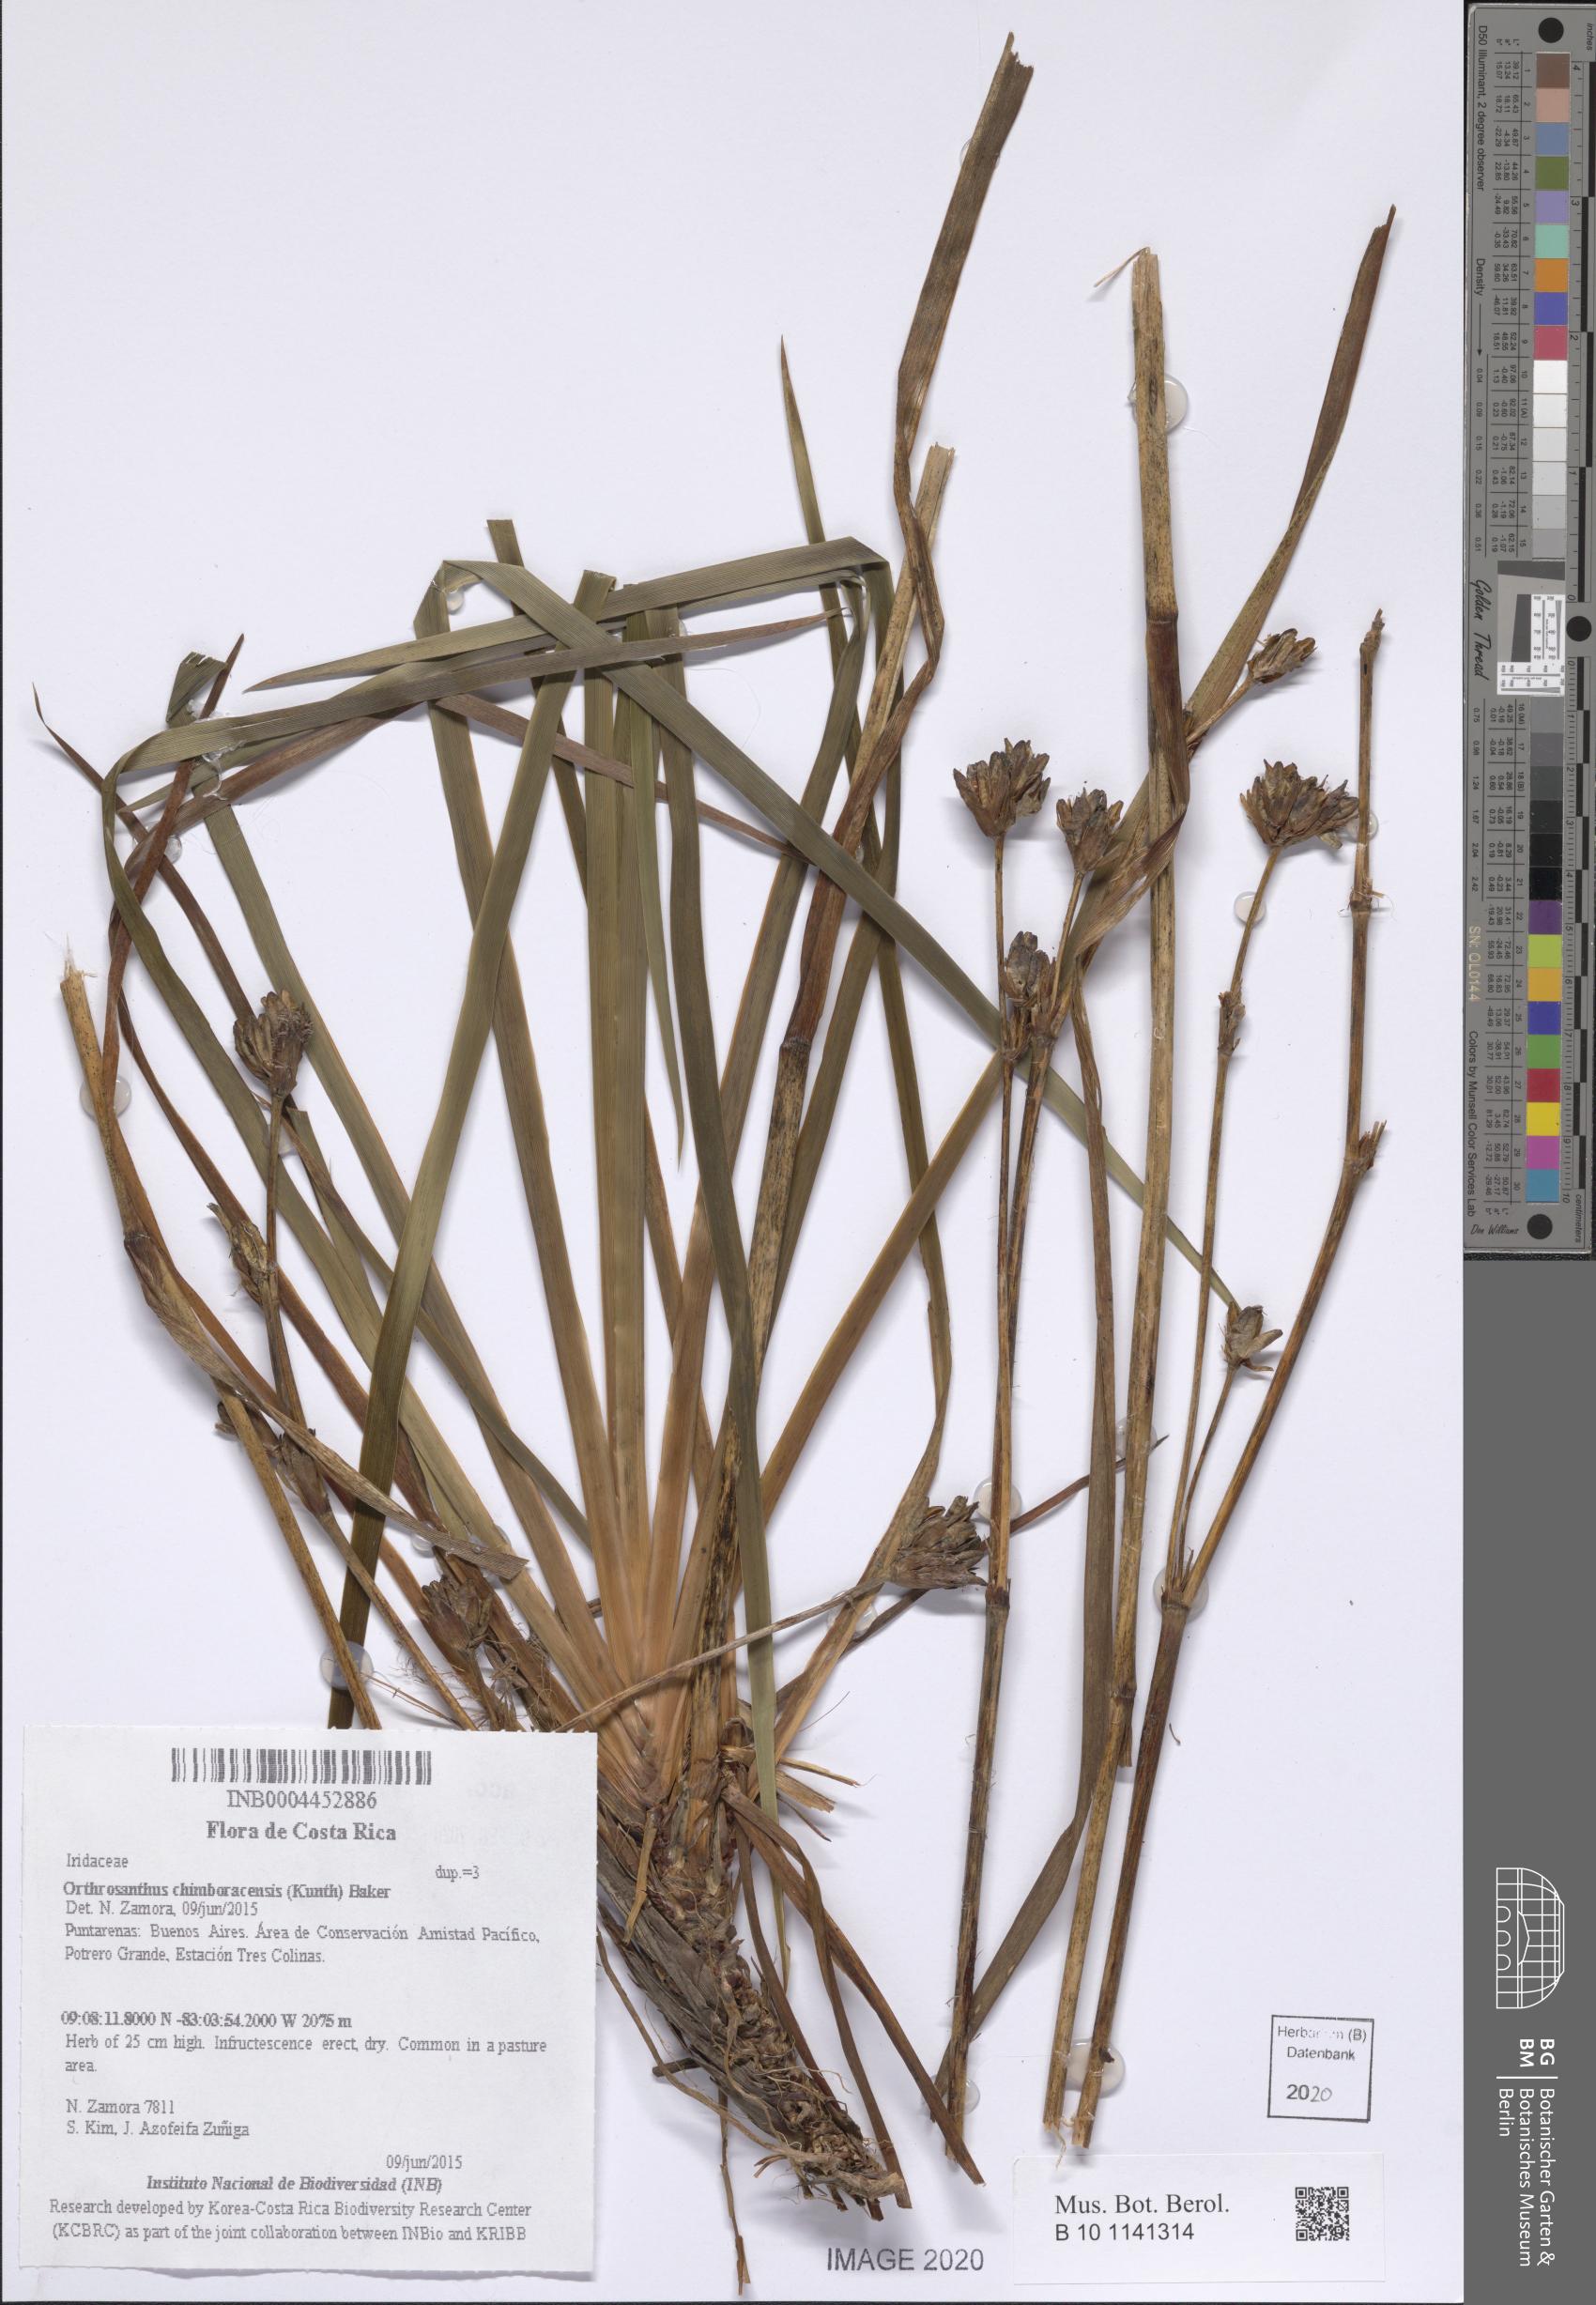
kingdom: Plantae
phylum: Tracheophyta
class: Liliopsida
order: Asparagales
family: Iridaceae
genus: Orthrosanthus
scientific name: Orthrosanthus chimboracensis
